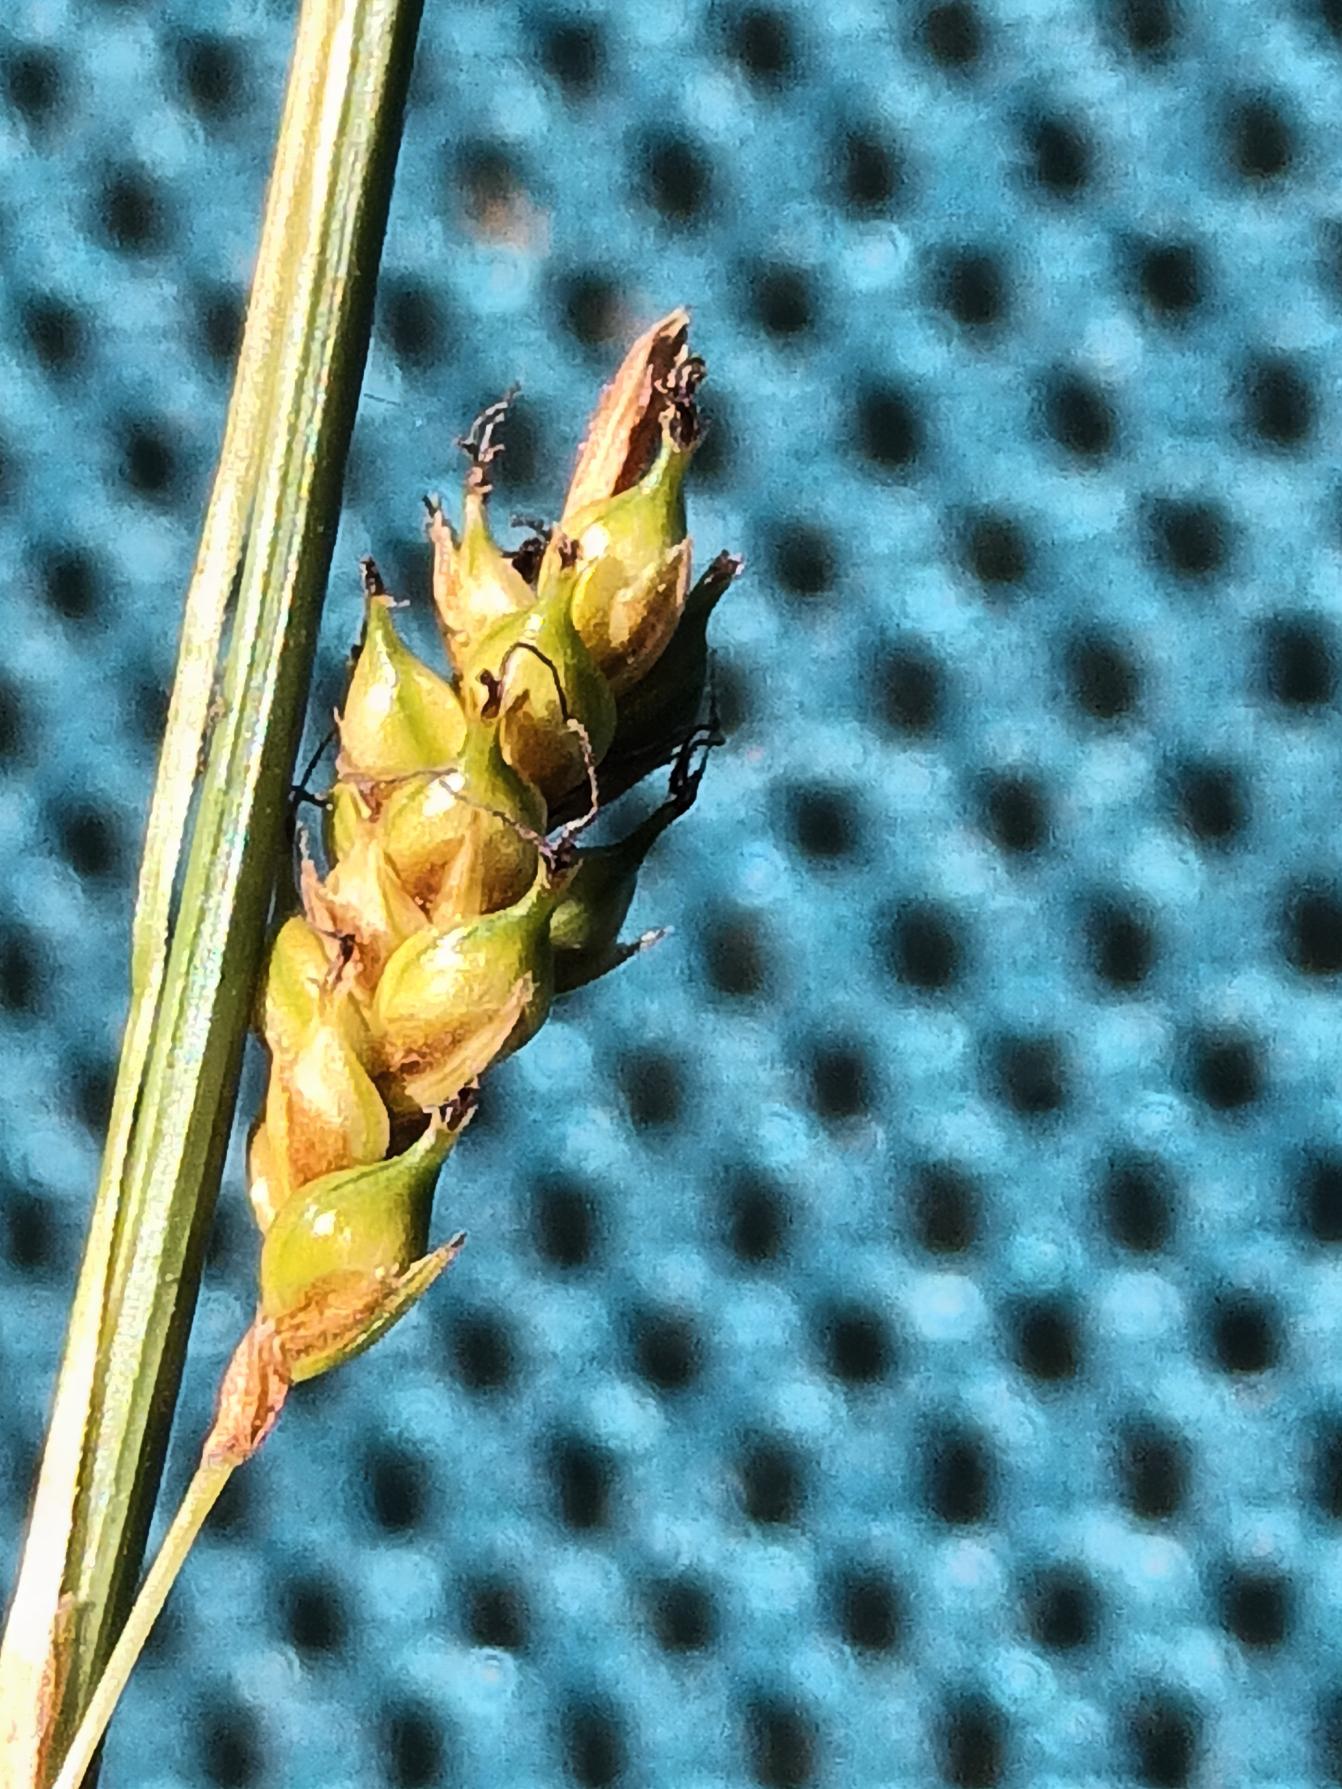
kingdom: Plantae
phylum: Tracheophyta
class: Liliopsida
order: Poales
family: Cyperaceae
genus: Carex
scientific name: Carex distans
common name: Fjernakset star
